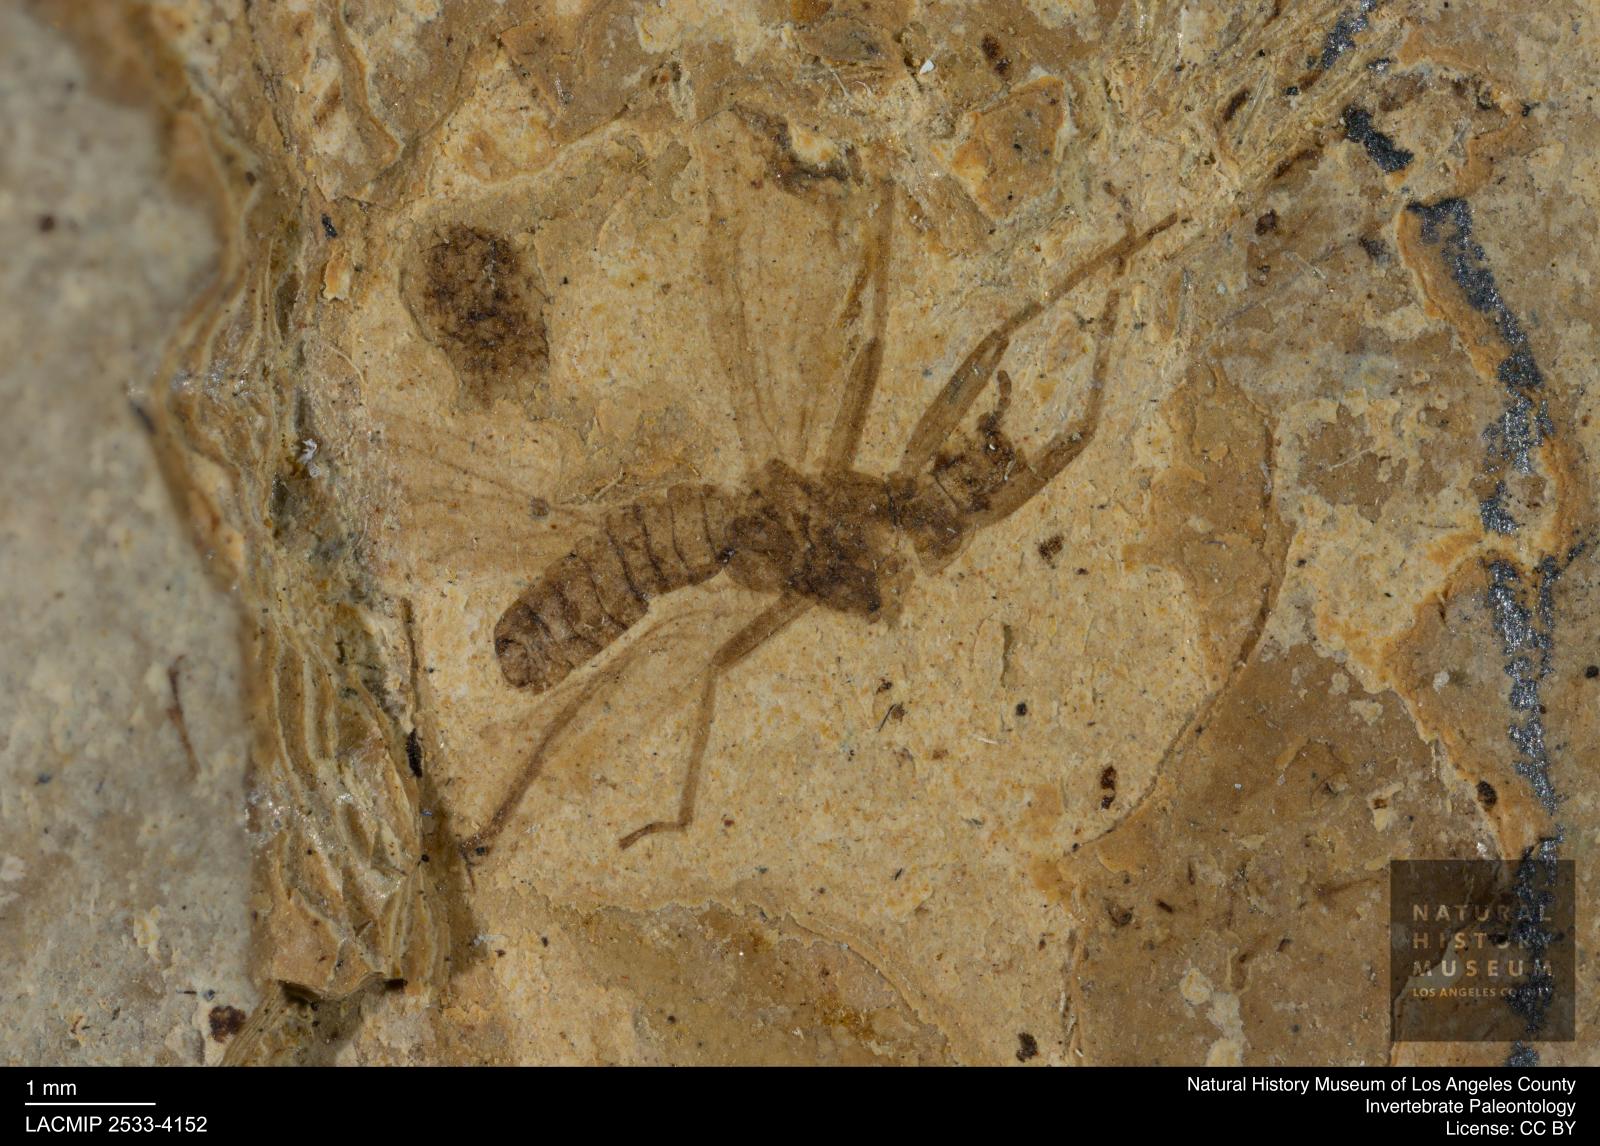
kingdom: Animalia
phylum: Arthropoda
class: Insecta
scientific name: Insecta
